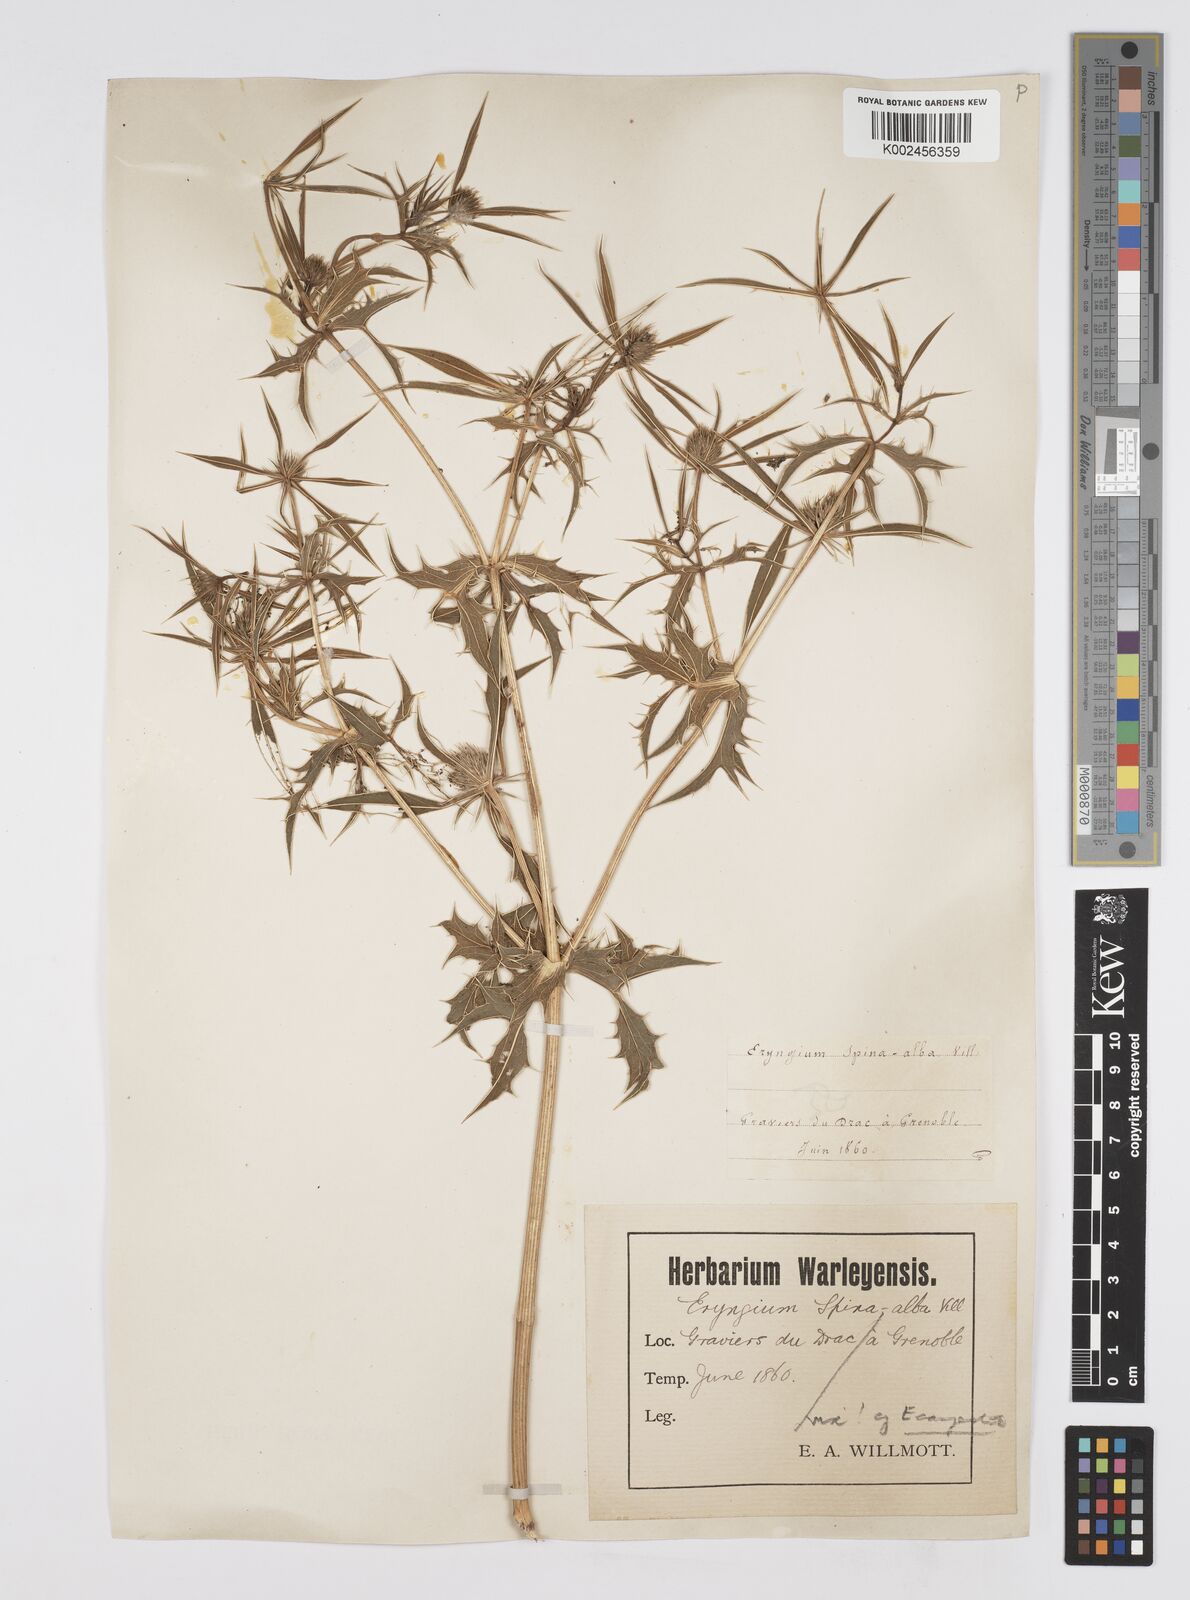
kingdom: Plantae
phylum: Tracheophyta
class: Magnoliopsida
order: Apiales
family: Apiaceae
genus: Eryngium
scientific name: Eryngium campestre
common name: Field eryngo
